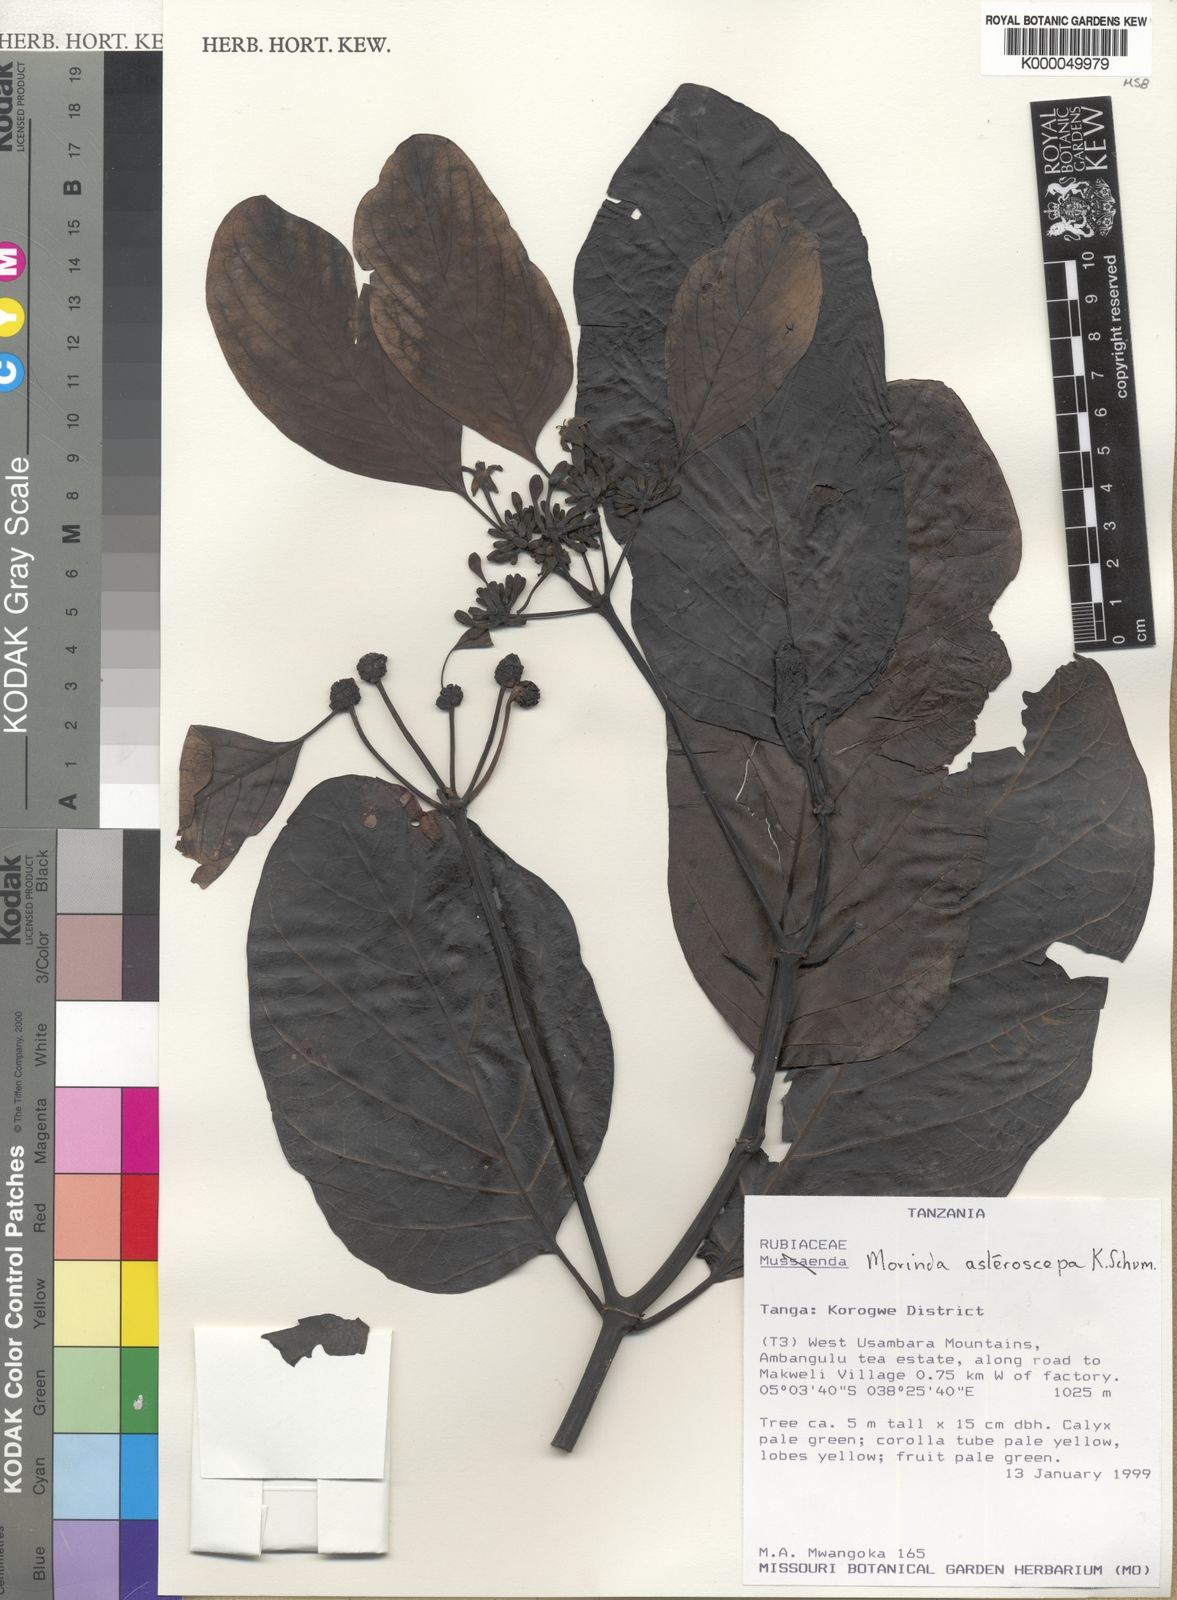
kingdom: Plantae
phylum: Tracheophyta
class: Magnoliopsida
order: Gentianales
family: Rubiaceae
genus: Morinda
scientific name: Morinda asteroscepa
